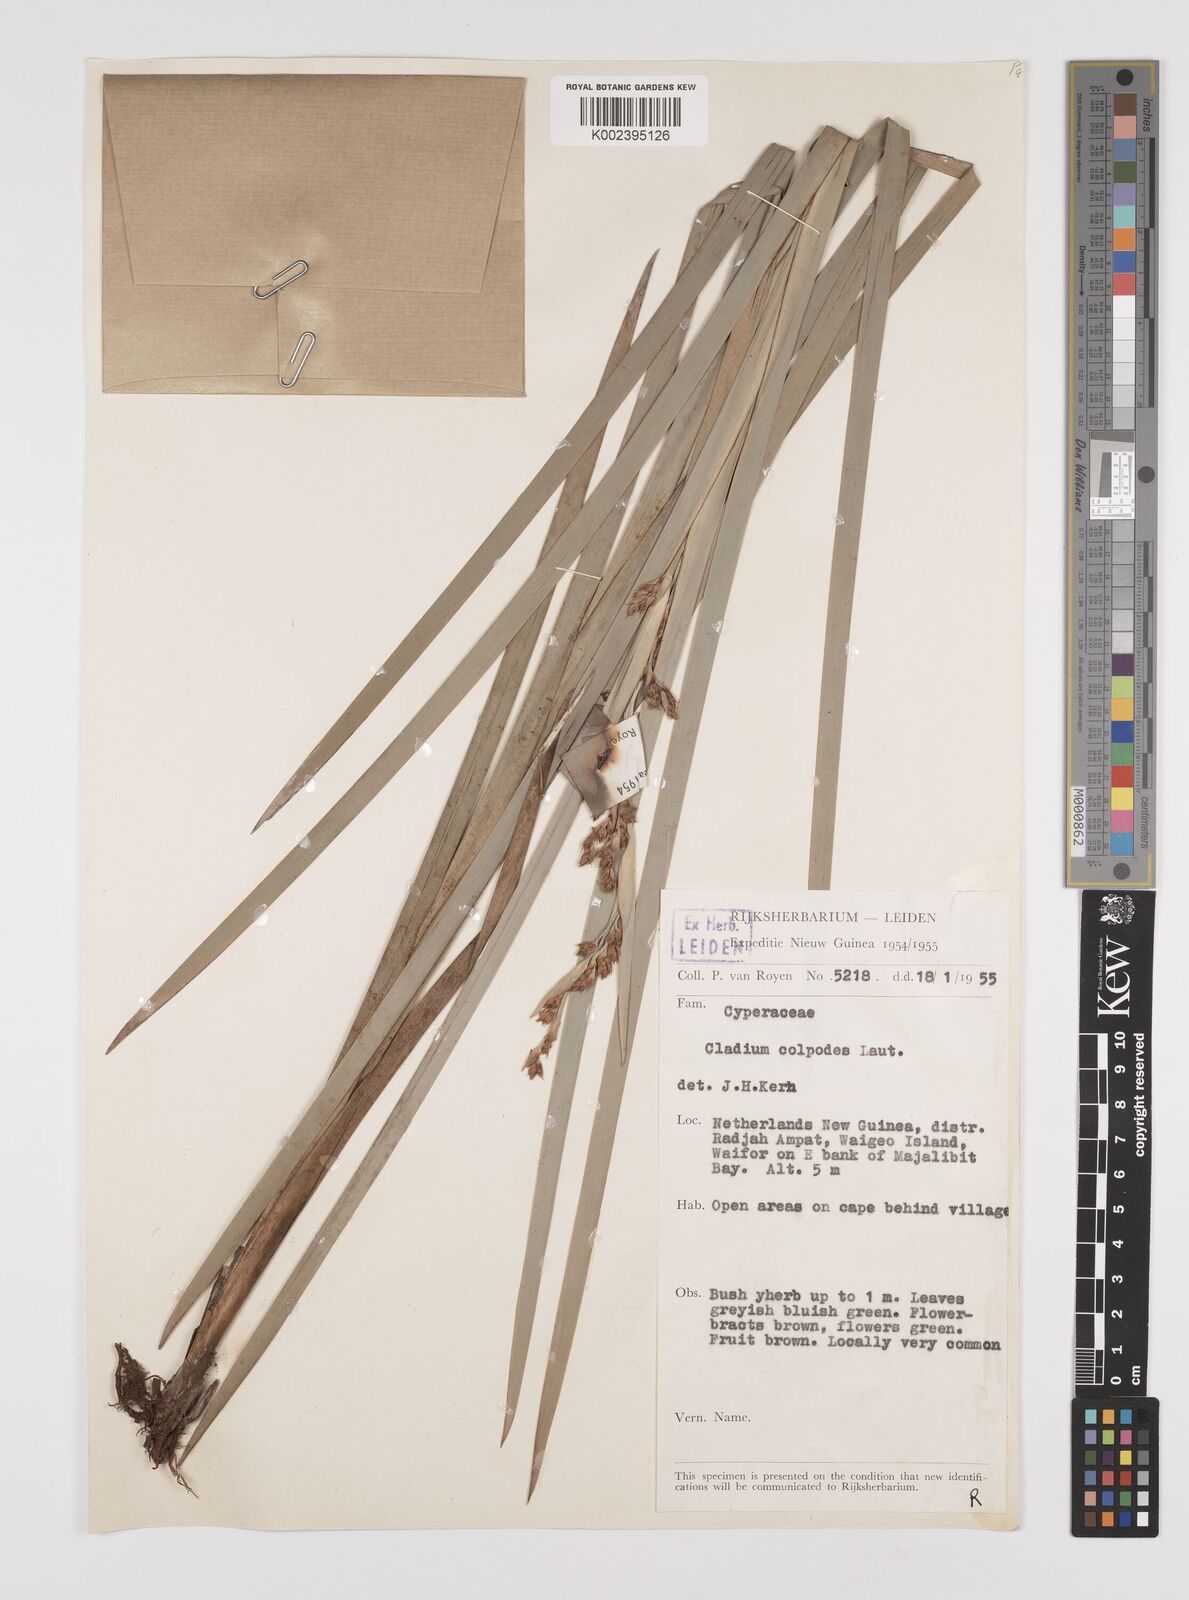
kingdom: Plantae
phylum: Tracheophyta
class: Liliopsida
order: Poales
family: Cyperaceae
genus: Machaerina
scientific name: Machaerina glomerata
